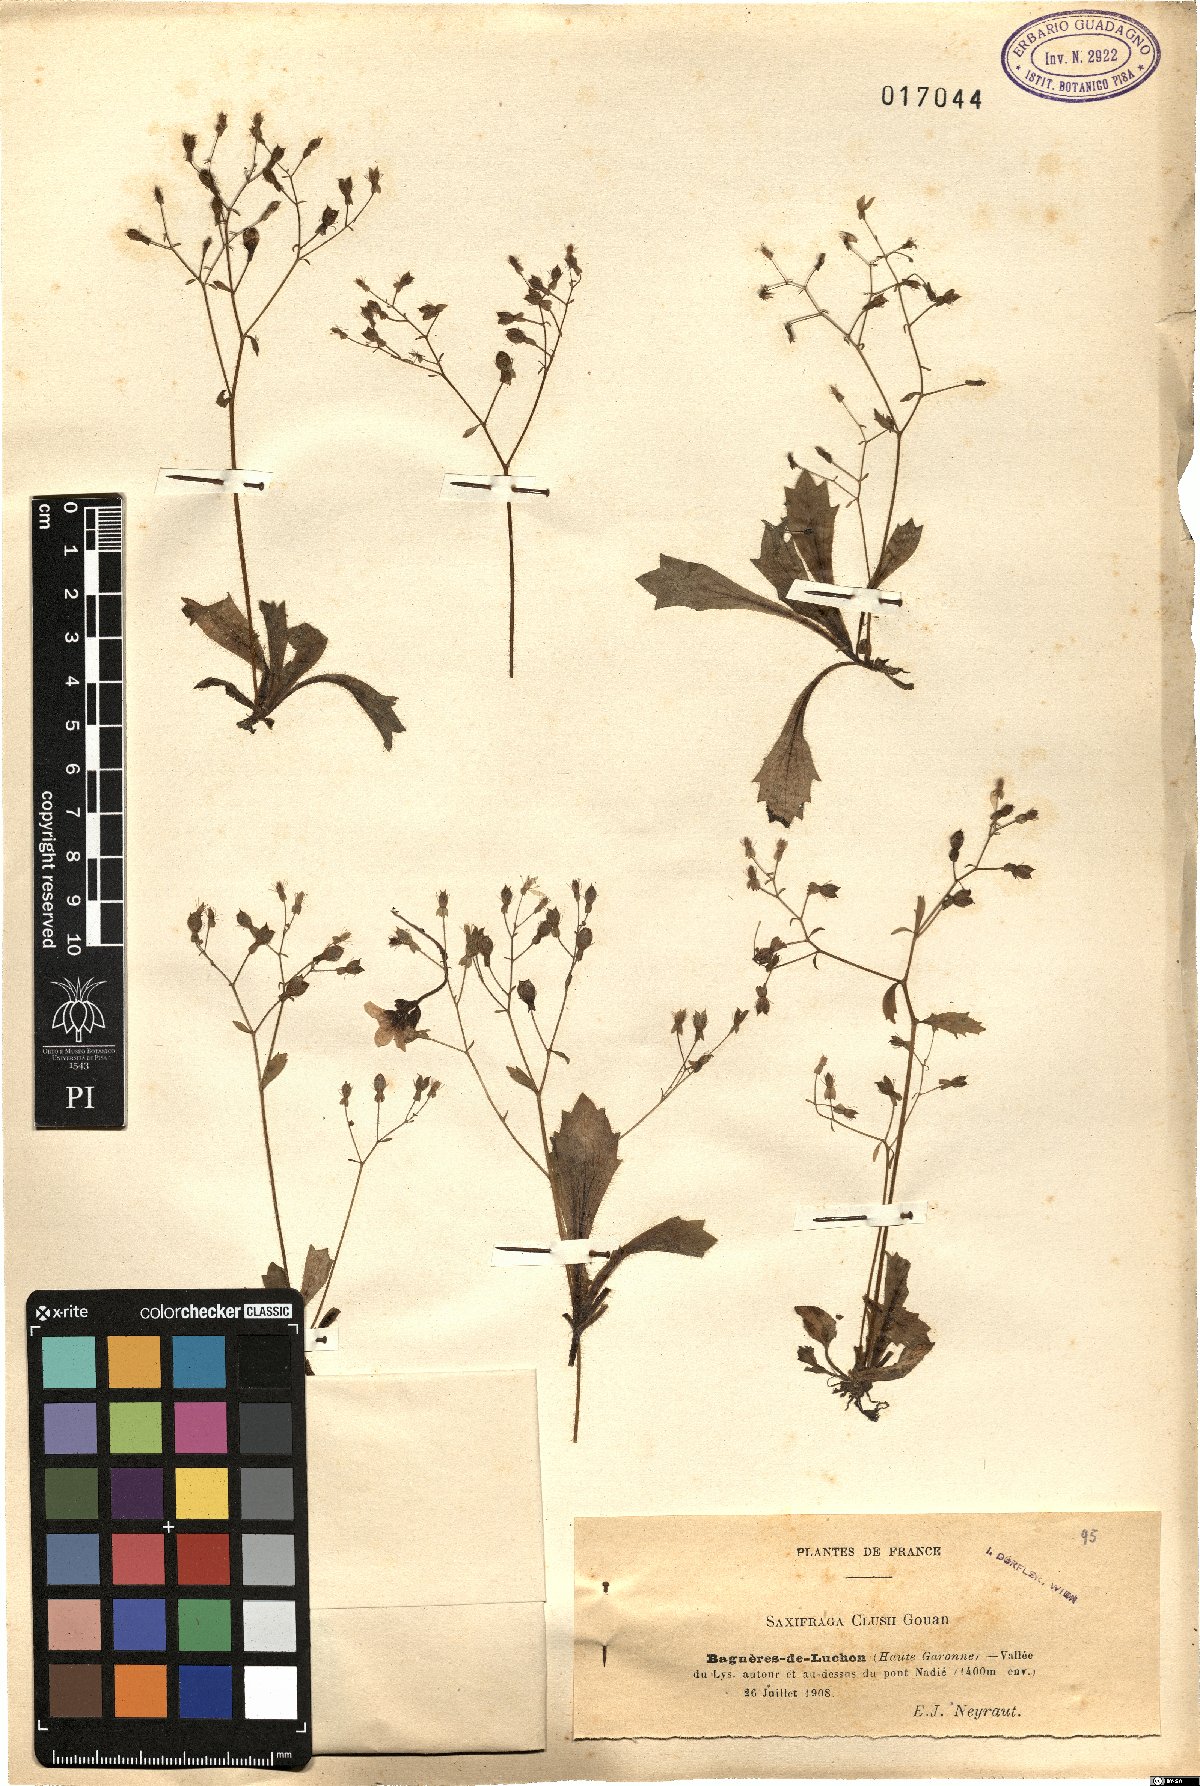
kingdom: Plantae
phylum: Tracheophyta
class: Magnoliopsida
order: Saxifragales
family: Saxifragaceae
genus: Micranthes
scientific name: Micranthes clusii
